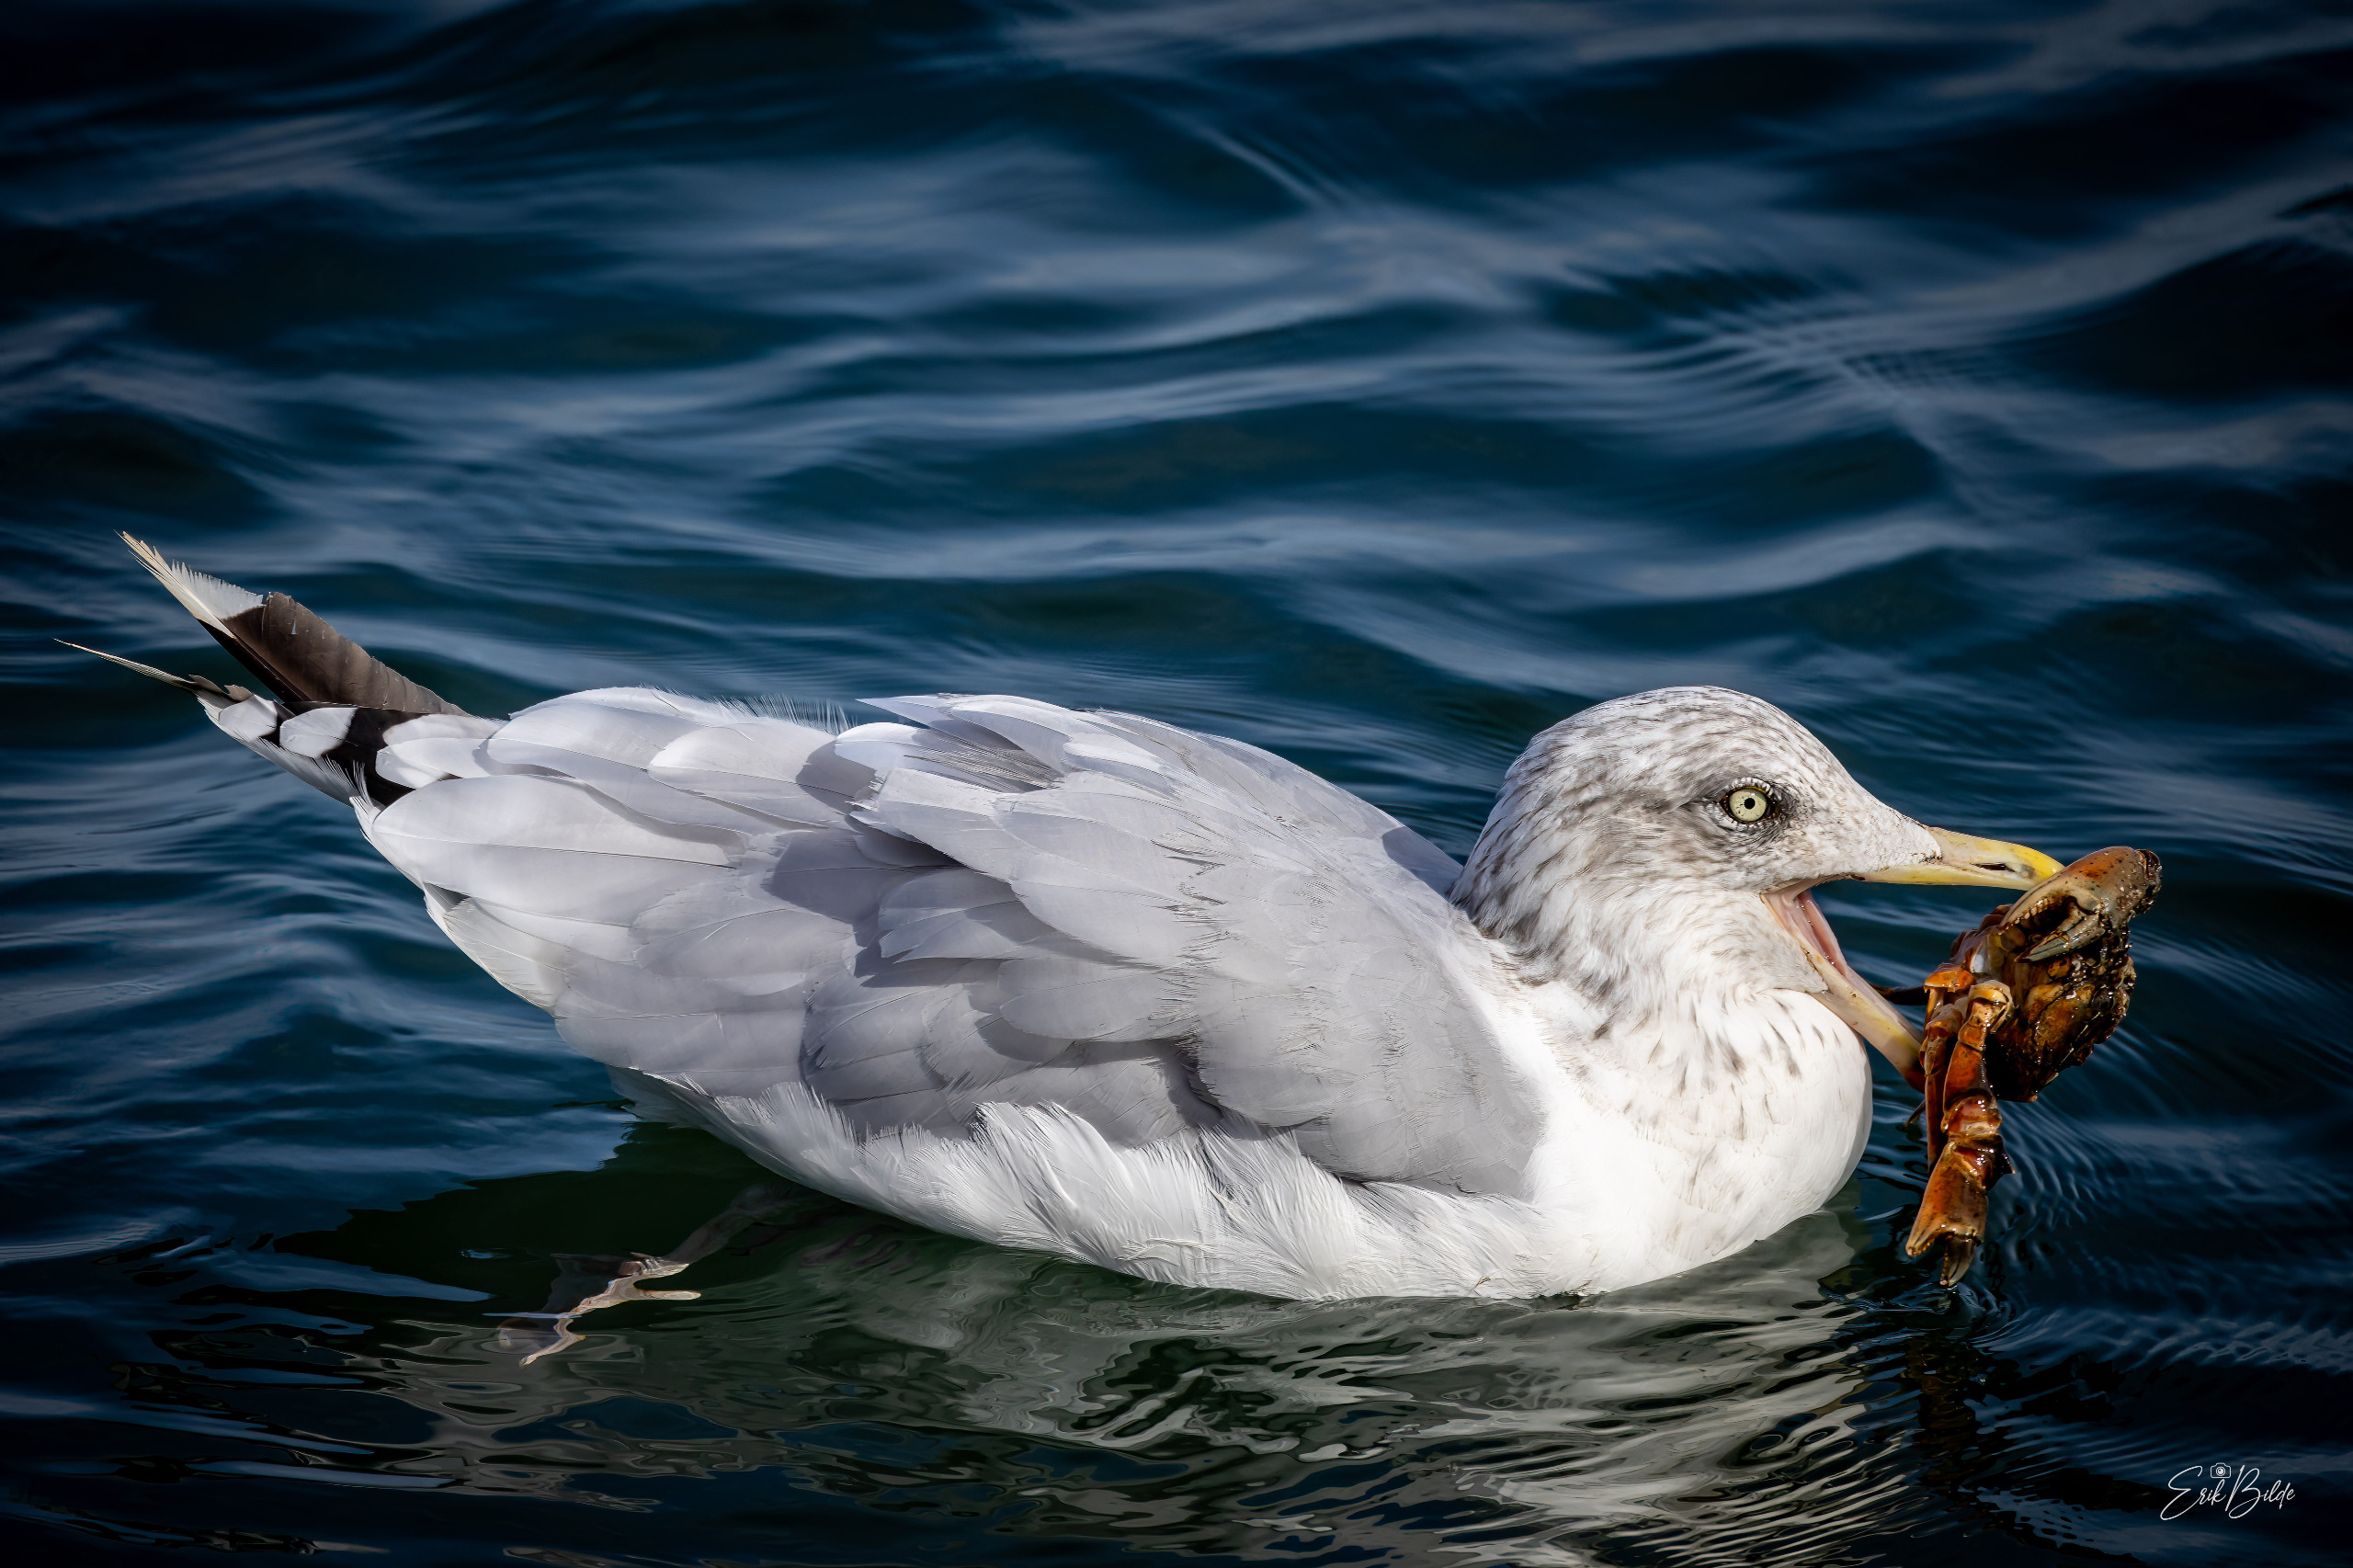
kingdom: Animalia
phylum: Chordata
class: Aves
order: Charadriiformes
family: Laridae
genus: Larus
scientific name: Larus argentatus
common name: Sølvmåge
